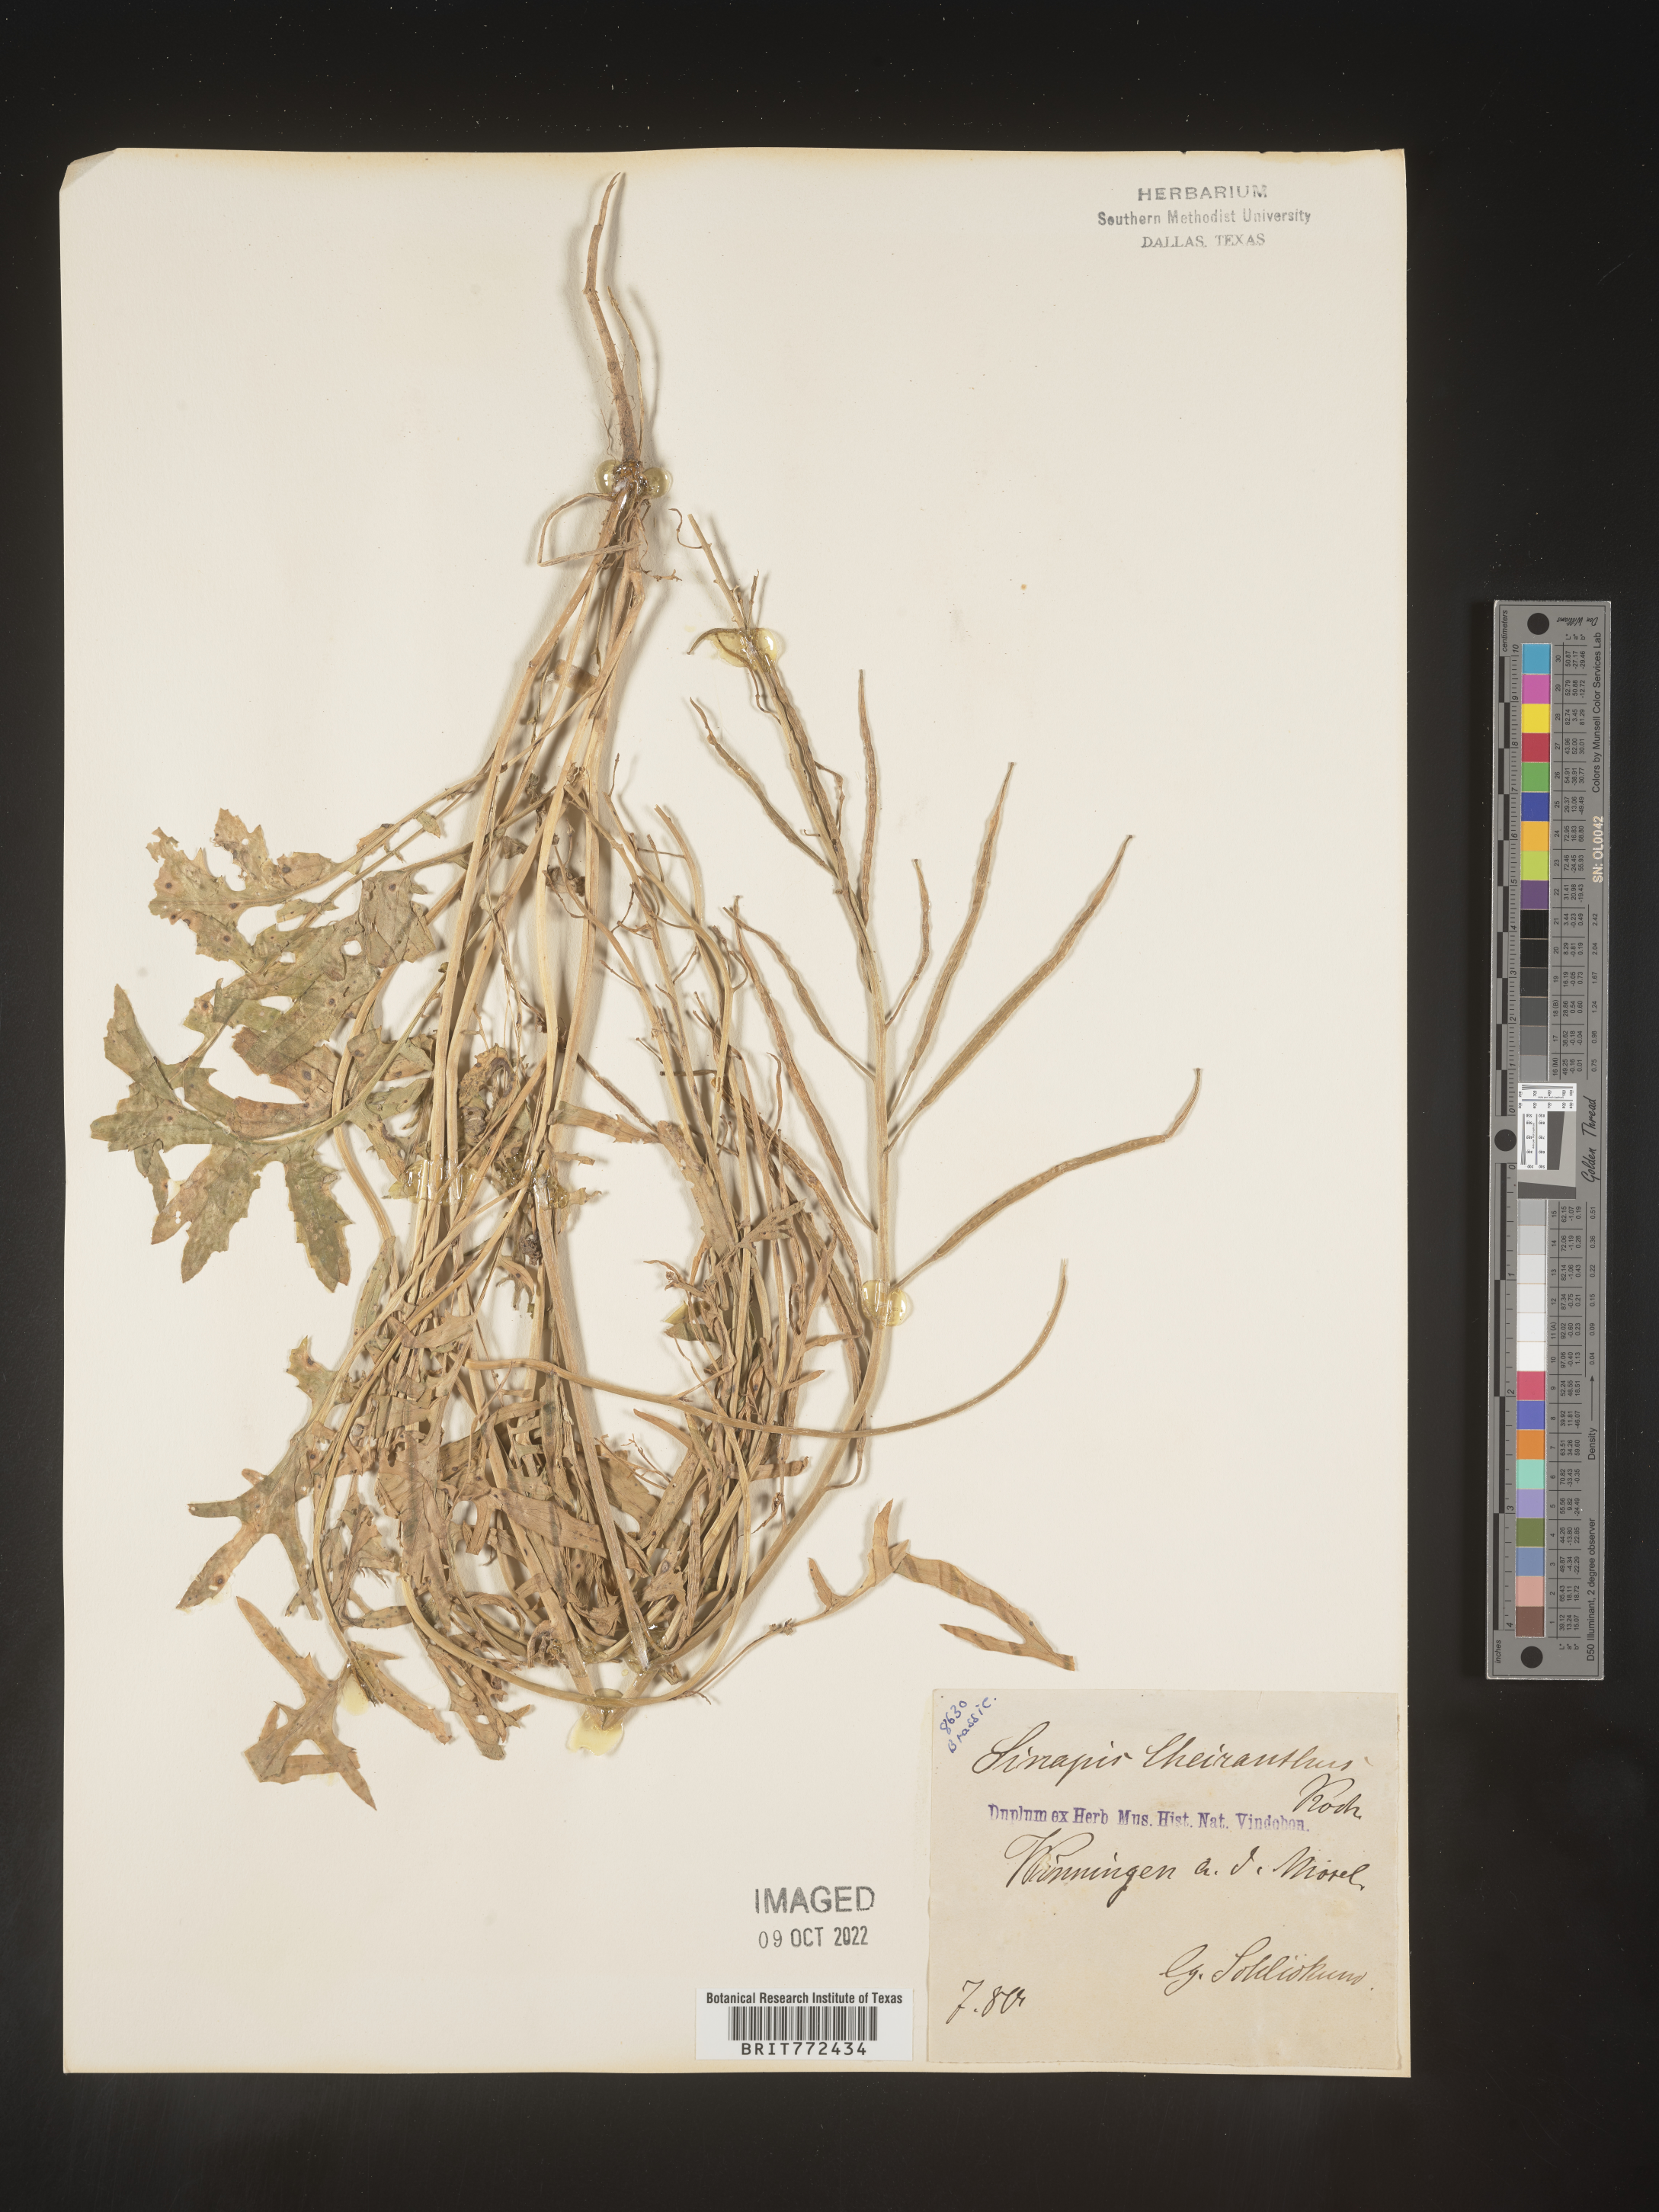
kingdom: Plantae
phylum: Tracheophyta
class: Magnoliopsida
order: Brassicales
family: Brassicaceae
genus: Brassica
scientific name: Brassica
